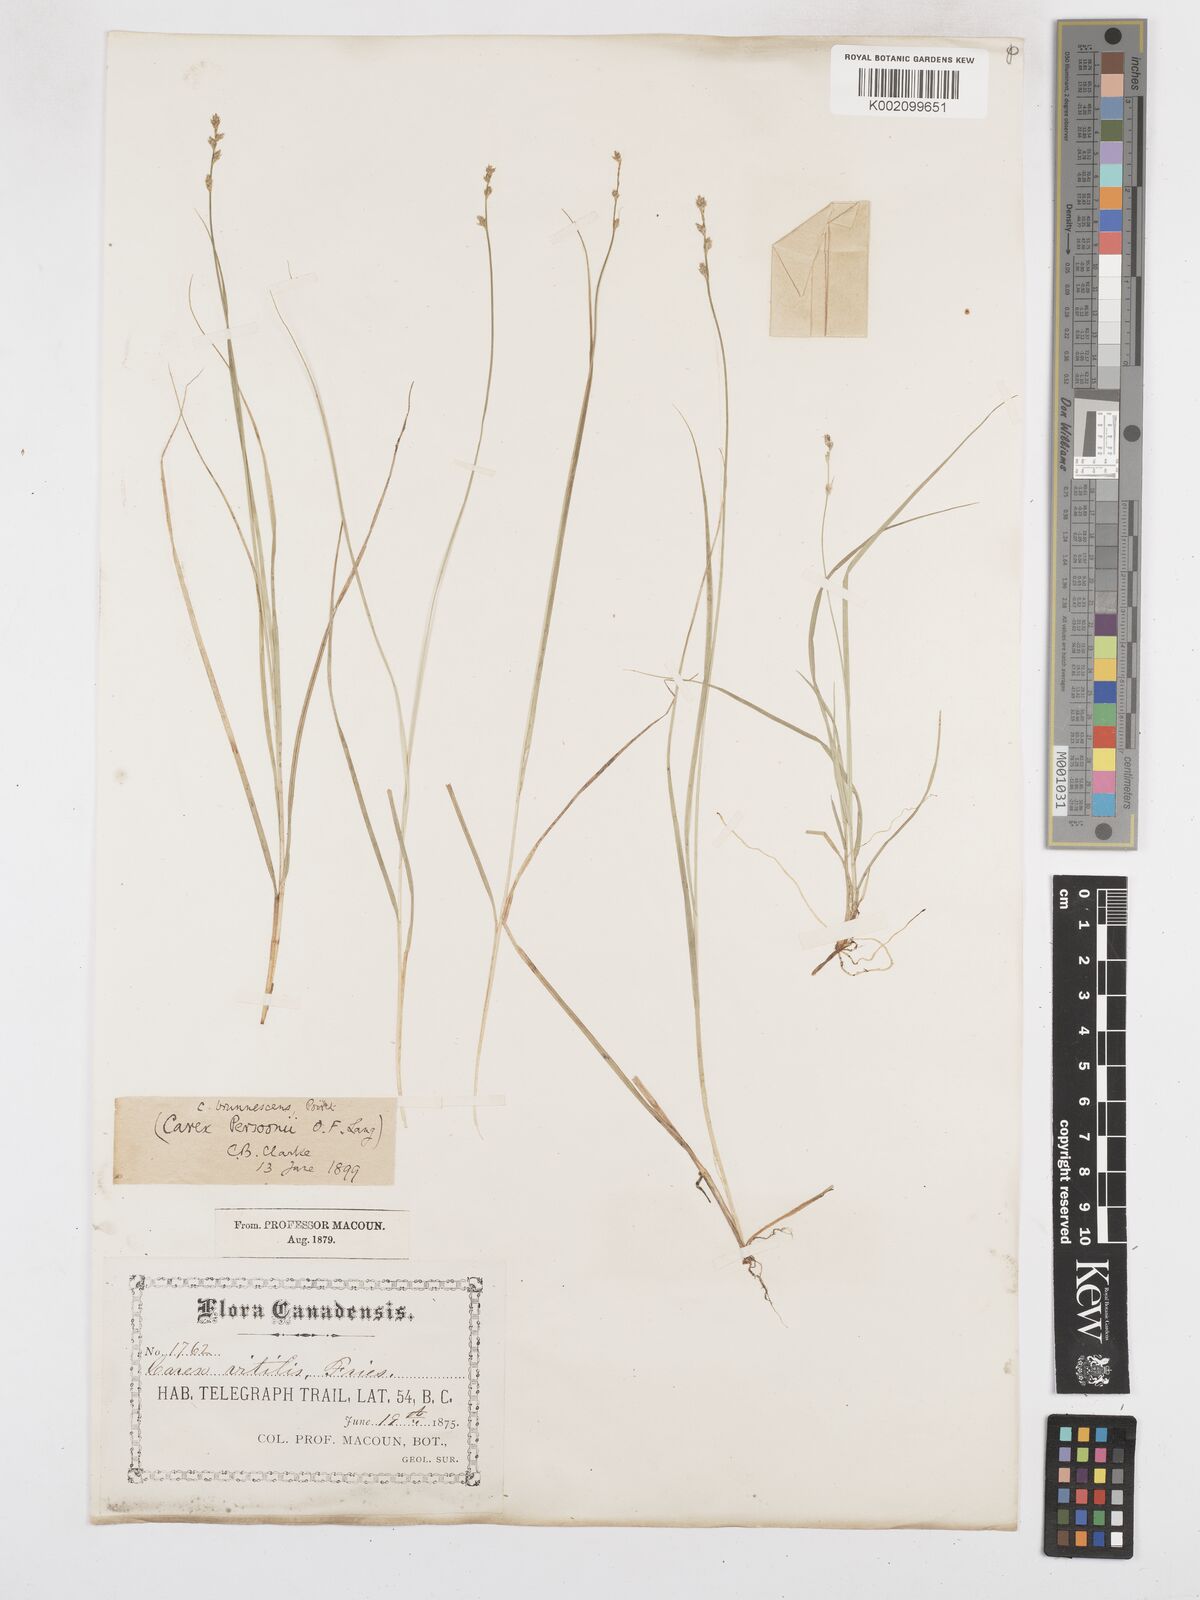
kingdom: Plantae
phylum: Tracheophyta
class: Liliopsida
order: Poales
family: Cyperaceae
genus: Carex
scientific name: Carex brunnescens
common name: Brown sedge
